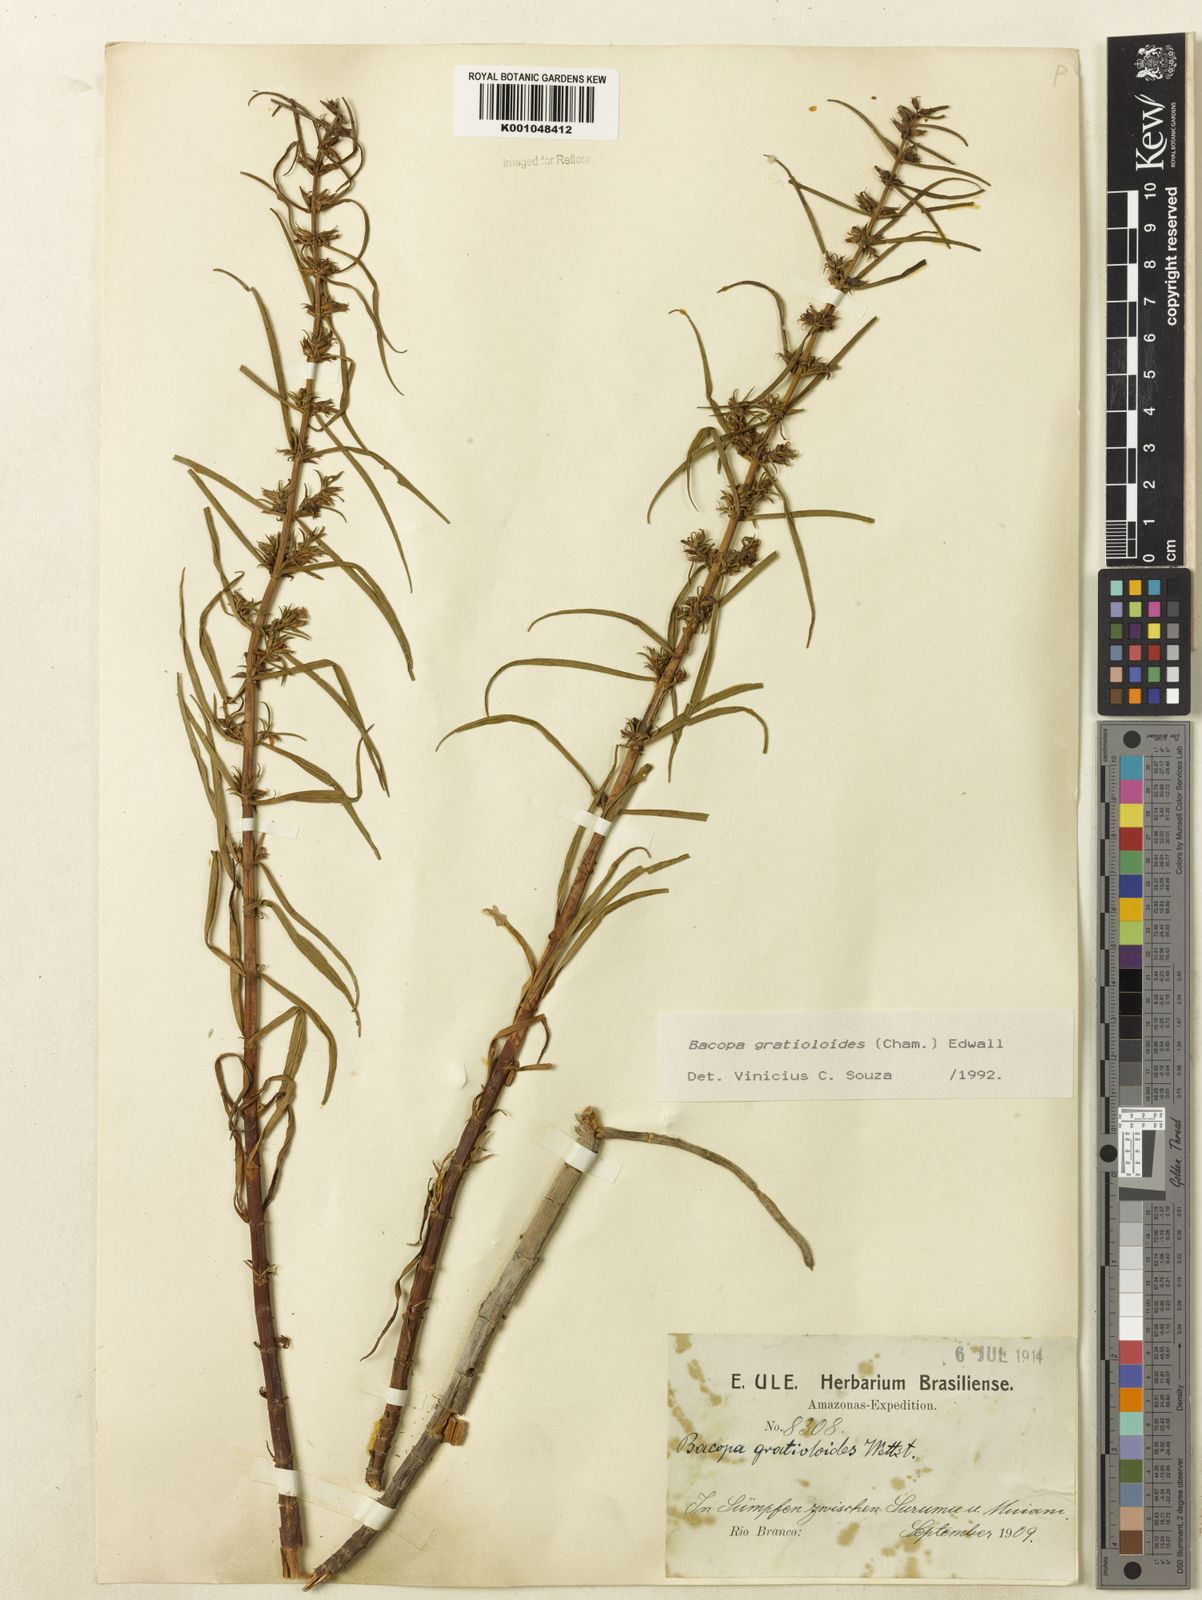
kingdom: Plantae
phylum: Tracheophyta
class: Magnoliopsida
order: Lamiales
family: Plantaginaceae
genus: Bacopa
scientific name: Bacopa
